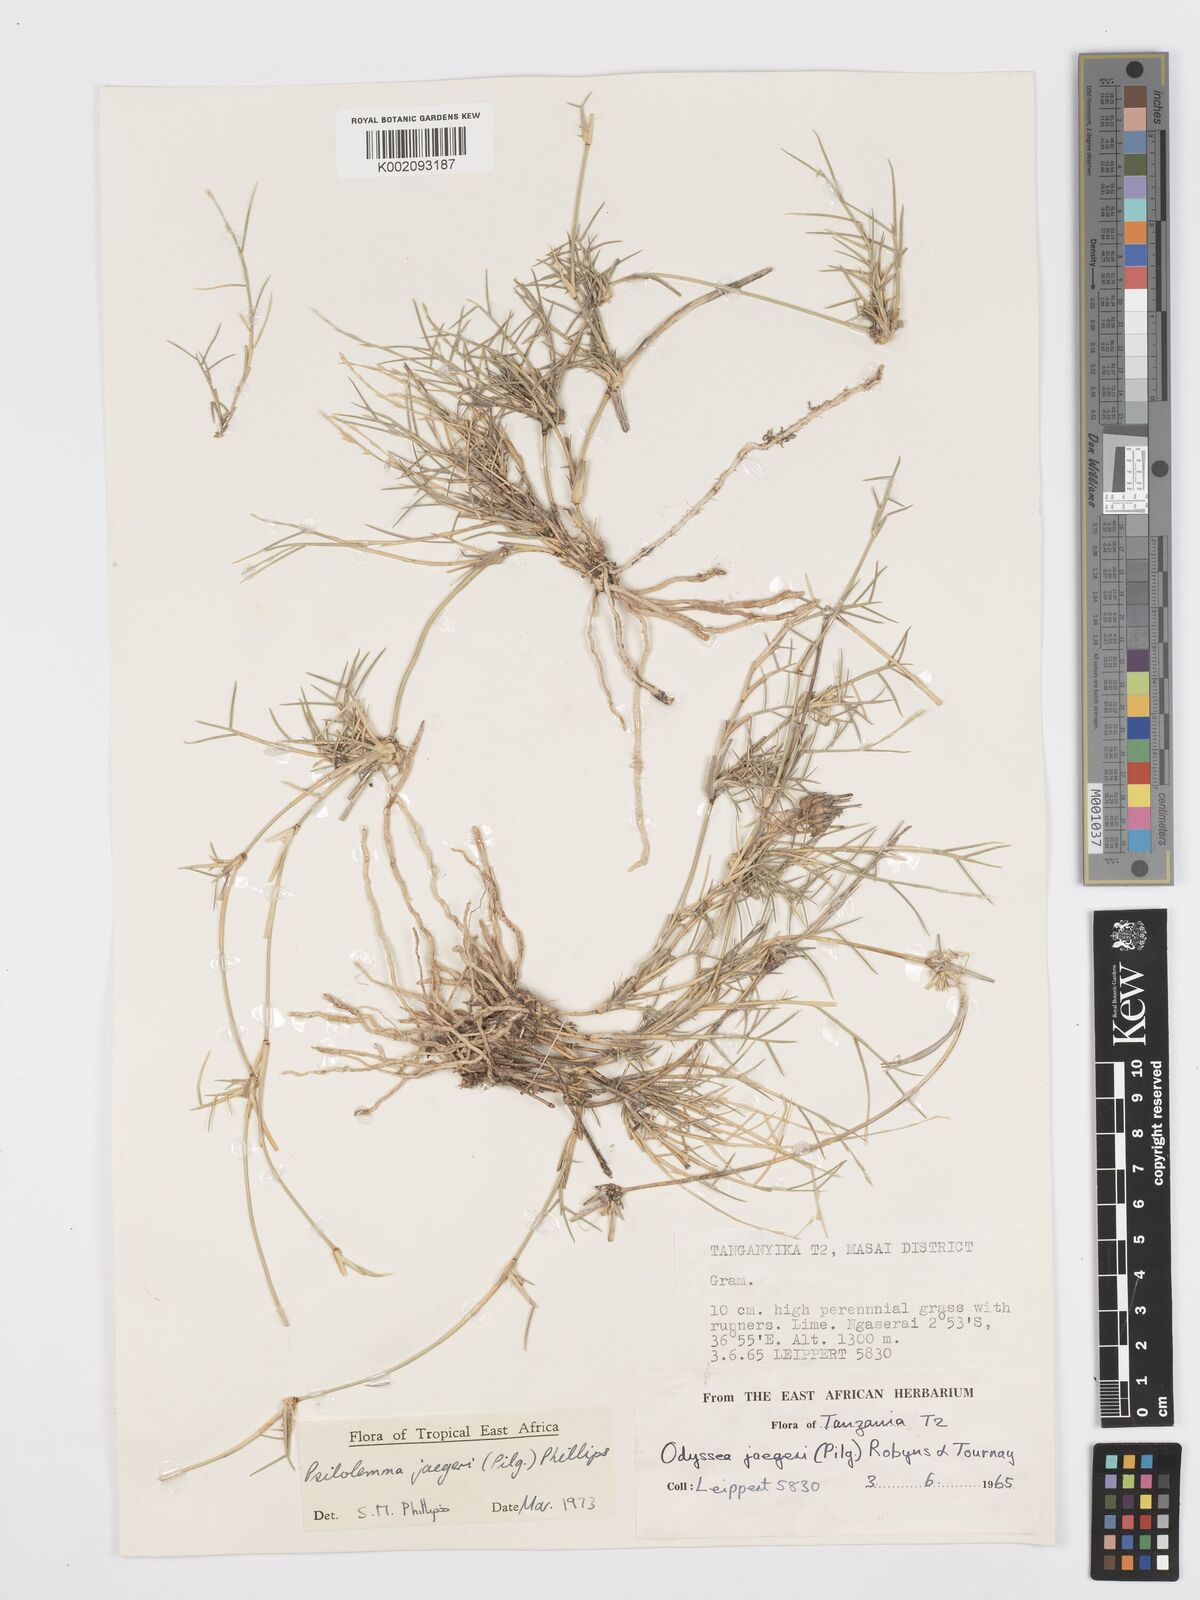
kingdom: Plantae
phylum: Tracheophyta
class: Liliopsida
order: Poales
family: Poaceae
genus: Psilolemma
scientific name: Psilolemma jaegeri
